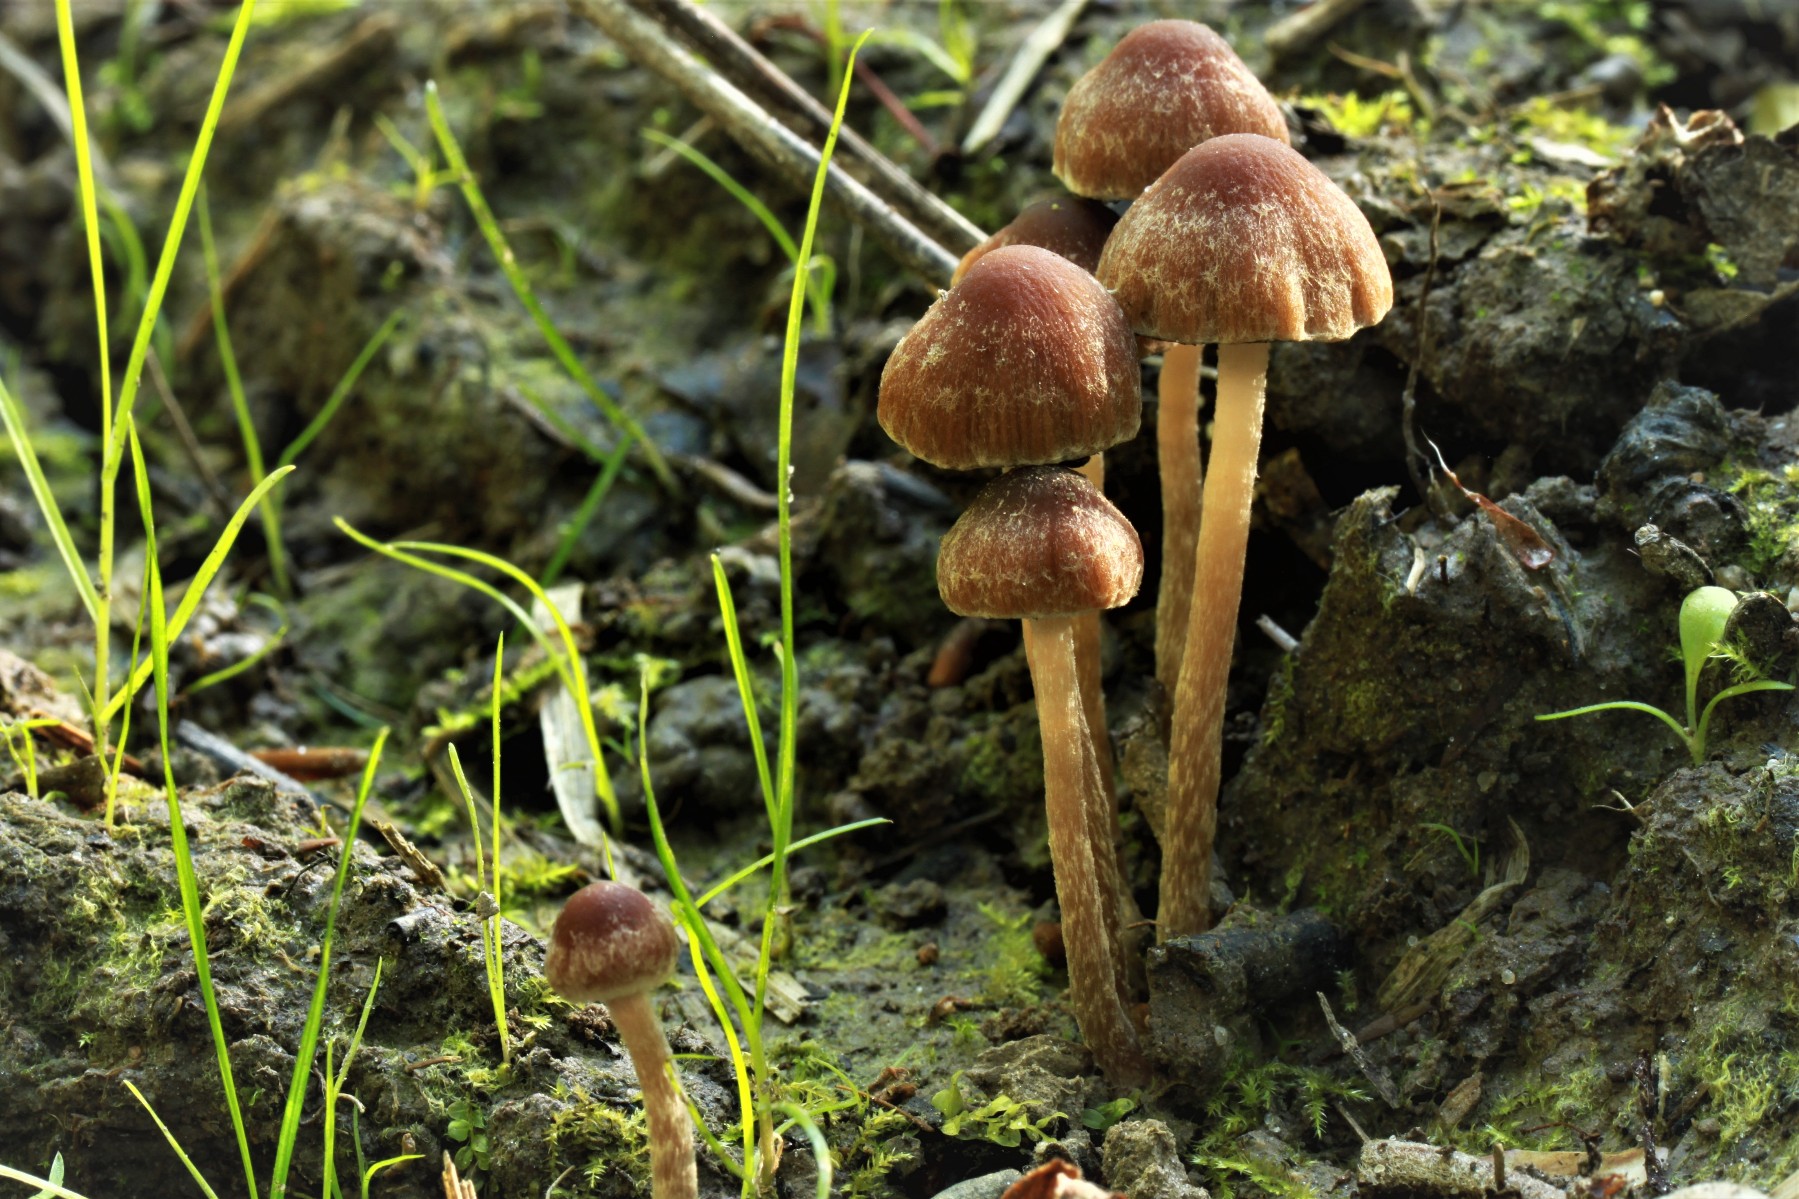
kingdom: Fungi
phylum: Basidiomycota
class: Agaricomycetes
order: Agaricales
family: Psathyrellaceae
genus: Psathyrella
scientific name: Psathyrella lutensis
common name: hjulspor-mørkhat
